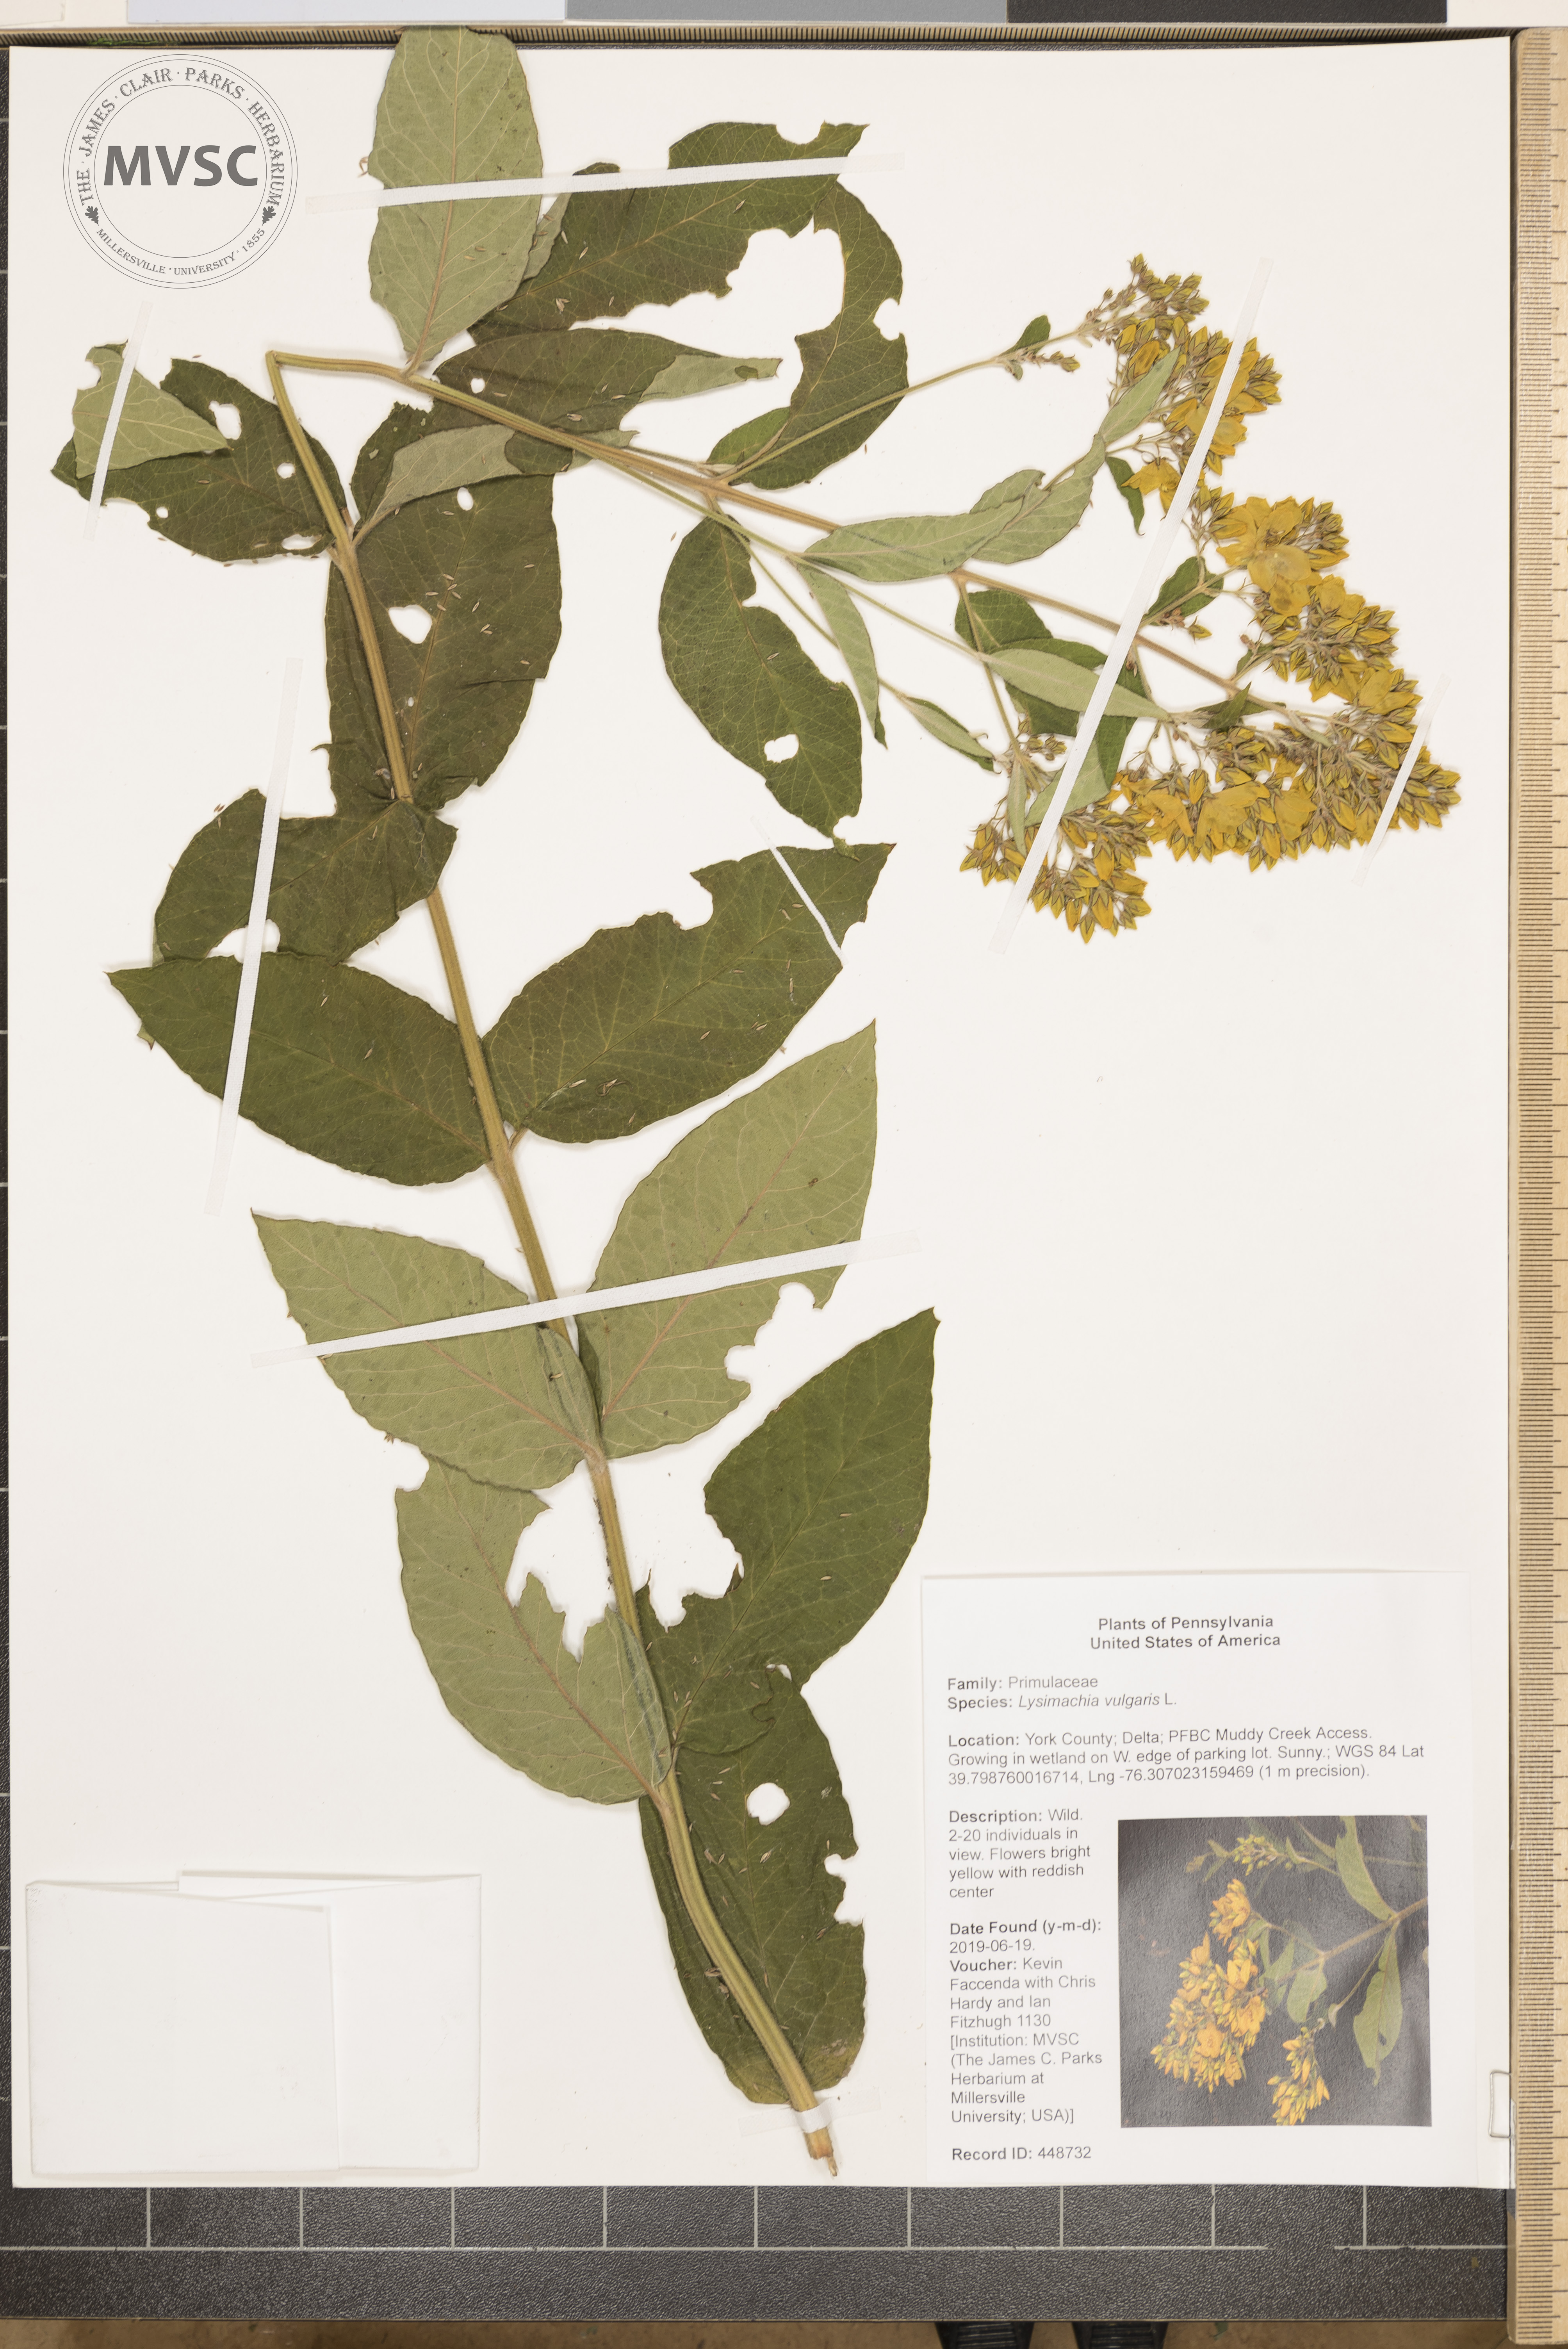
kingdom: Plantae
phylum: Tracheophyta
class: Magnoliopsida
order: Ericales
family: Primulaceae
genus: Lysimachia
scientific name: Lysimachia vulgaris
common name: Yellow loosestrife
